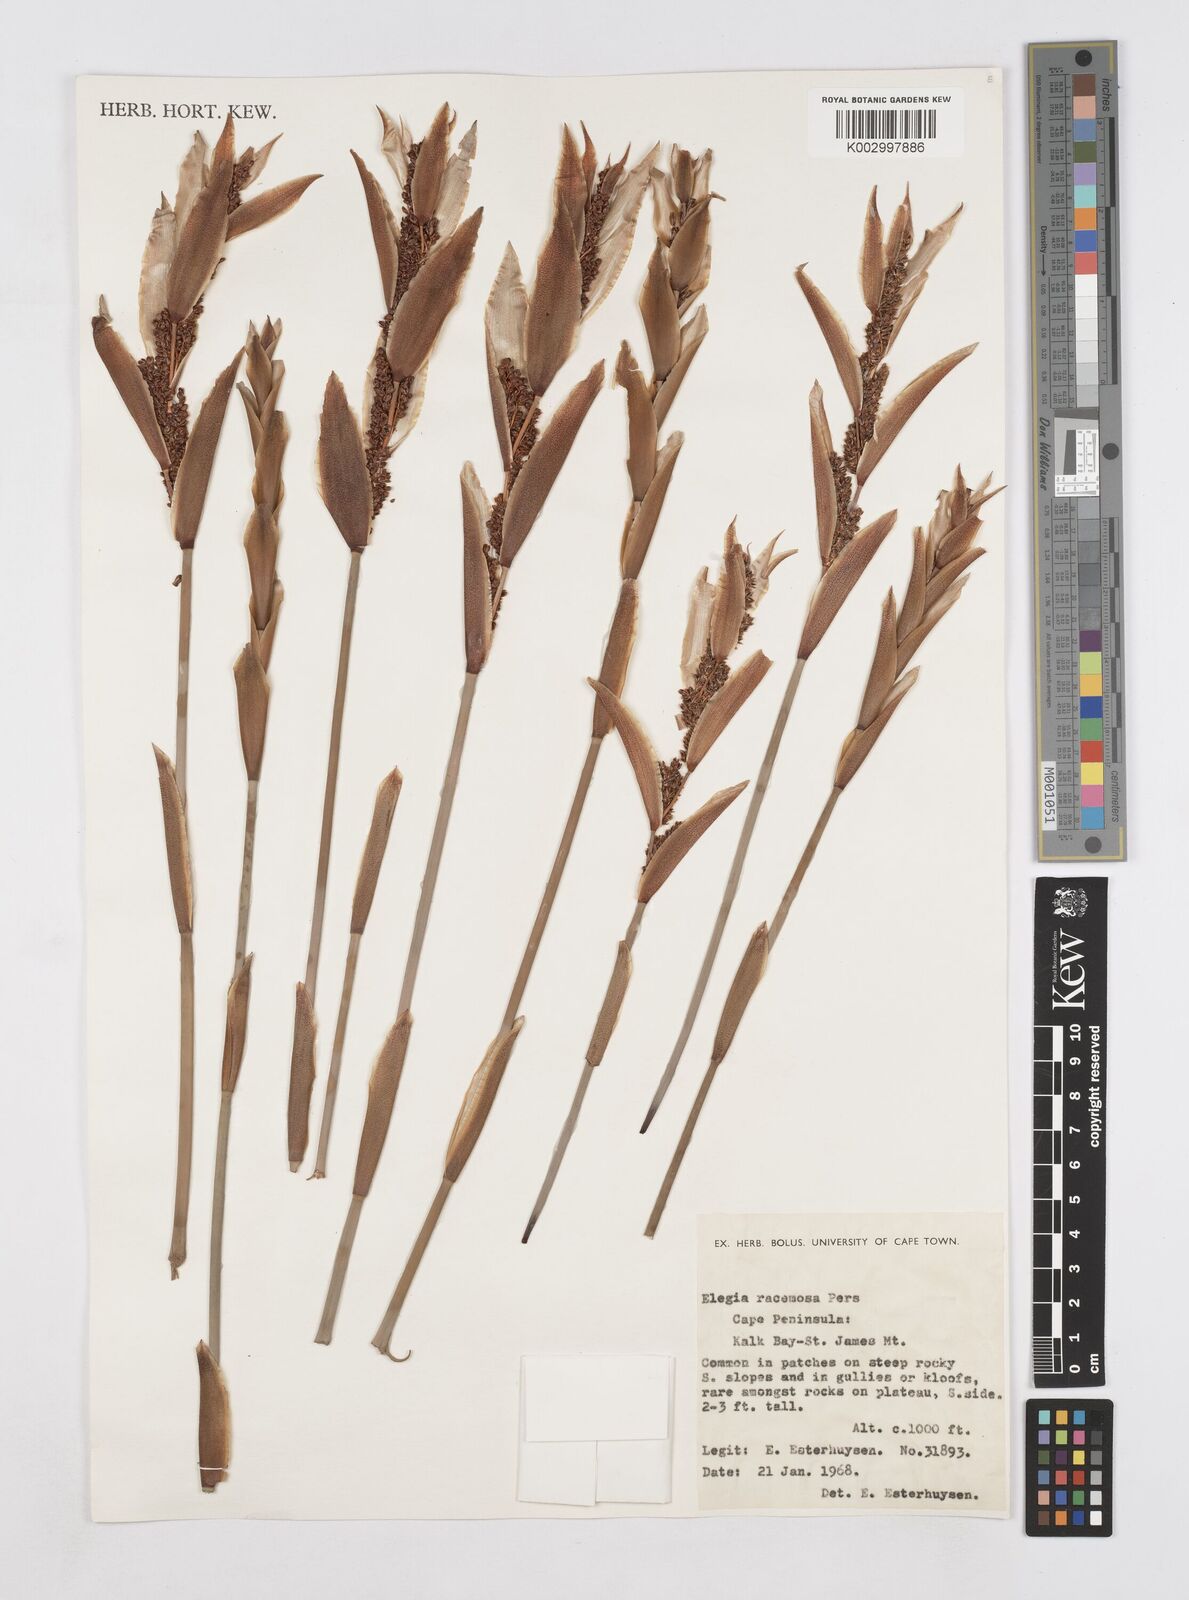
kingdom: Plantae
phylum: Tracheophyta
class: Liliopsida
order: Poales
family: Restionaceae
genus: Elegia
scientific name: Elegia racemosa
